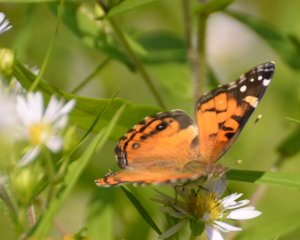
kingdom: Animalia
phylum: Arthropoda
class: Insecta
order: Lepidoptera
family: Nymphalidae
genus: Vanessa
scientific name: Vanessa virginiensis
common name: American Lady
